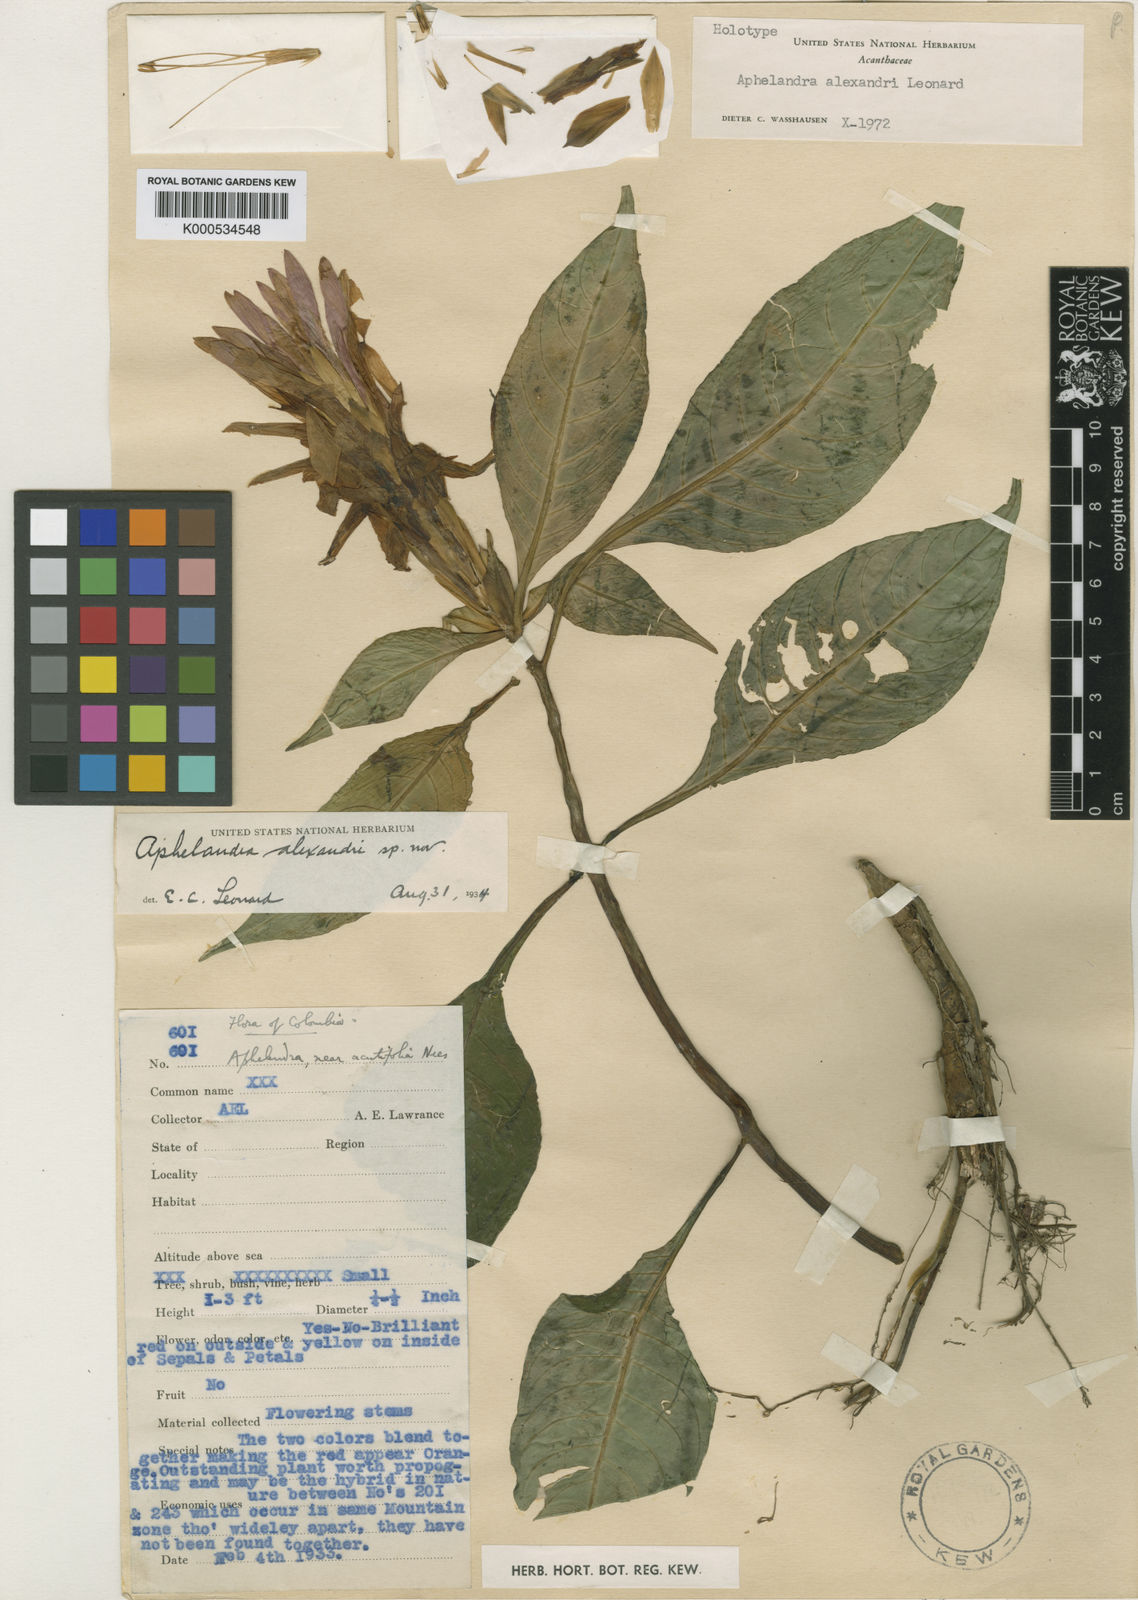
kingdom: Plantae
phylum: Tracheophyta
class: Magnoliopsida
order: Lamiales
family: Acanthaceae
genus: Aphelandra
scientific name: Aphelandra alexandri
